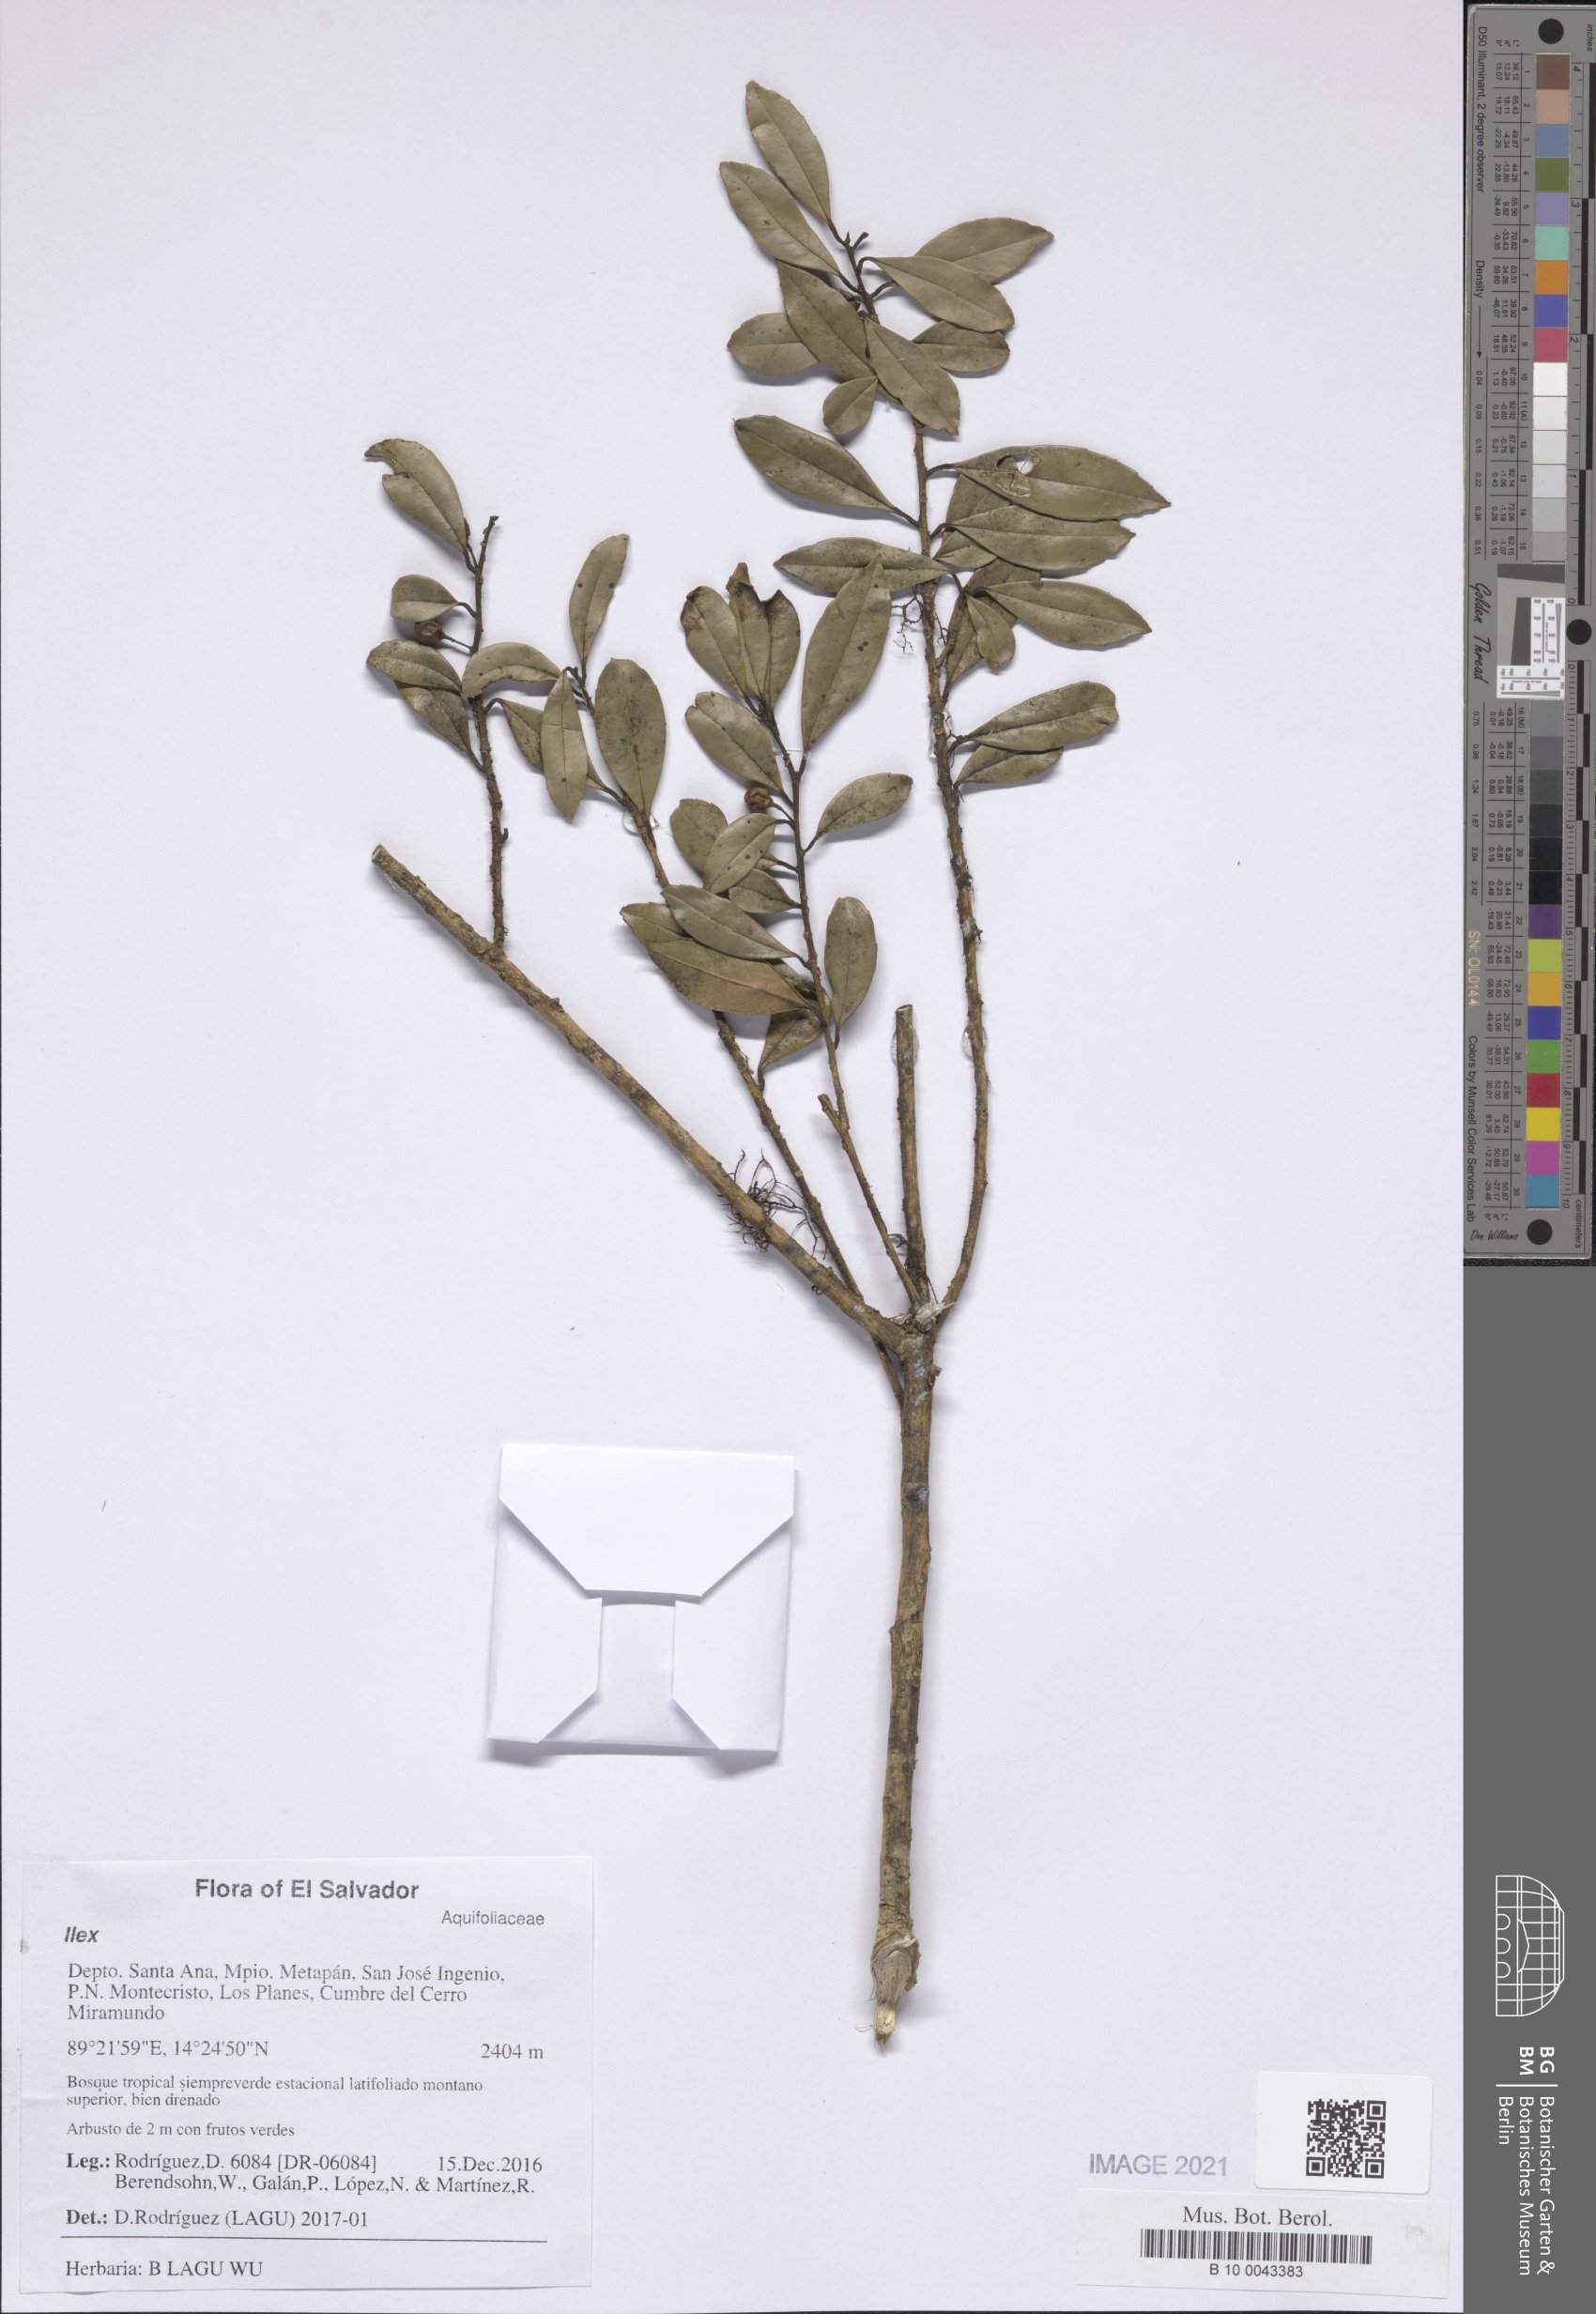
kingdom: Plantae
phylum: Tracheophyta
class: Magnoliopsida
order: Aquifoliales
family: Aquifoliaceae
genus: Ilex
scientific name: Ilex pallida
